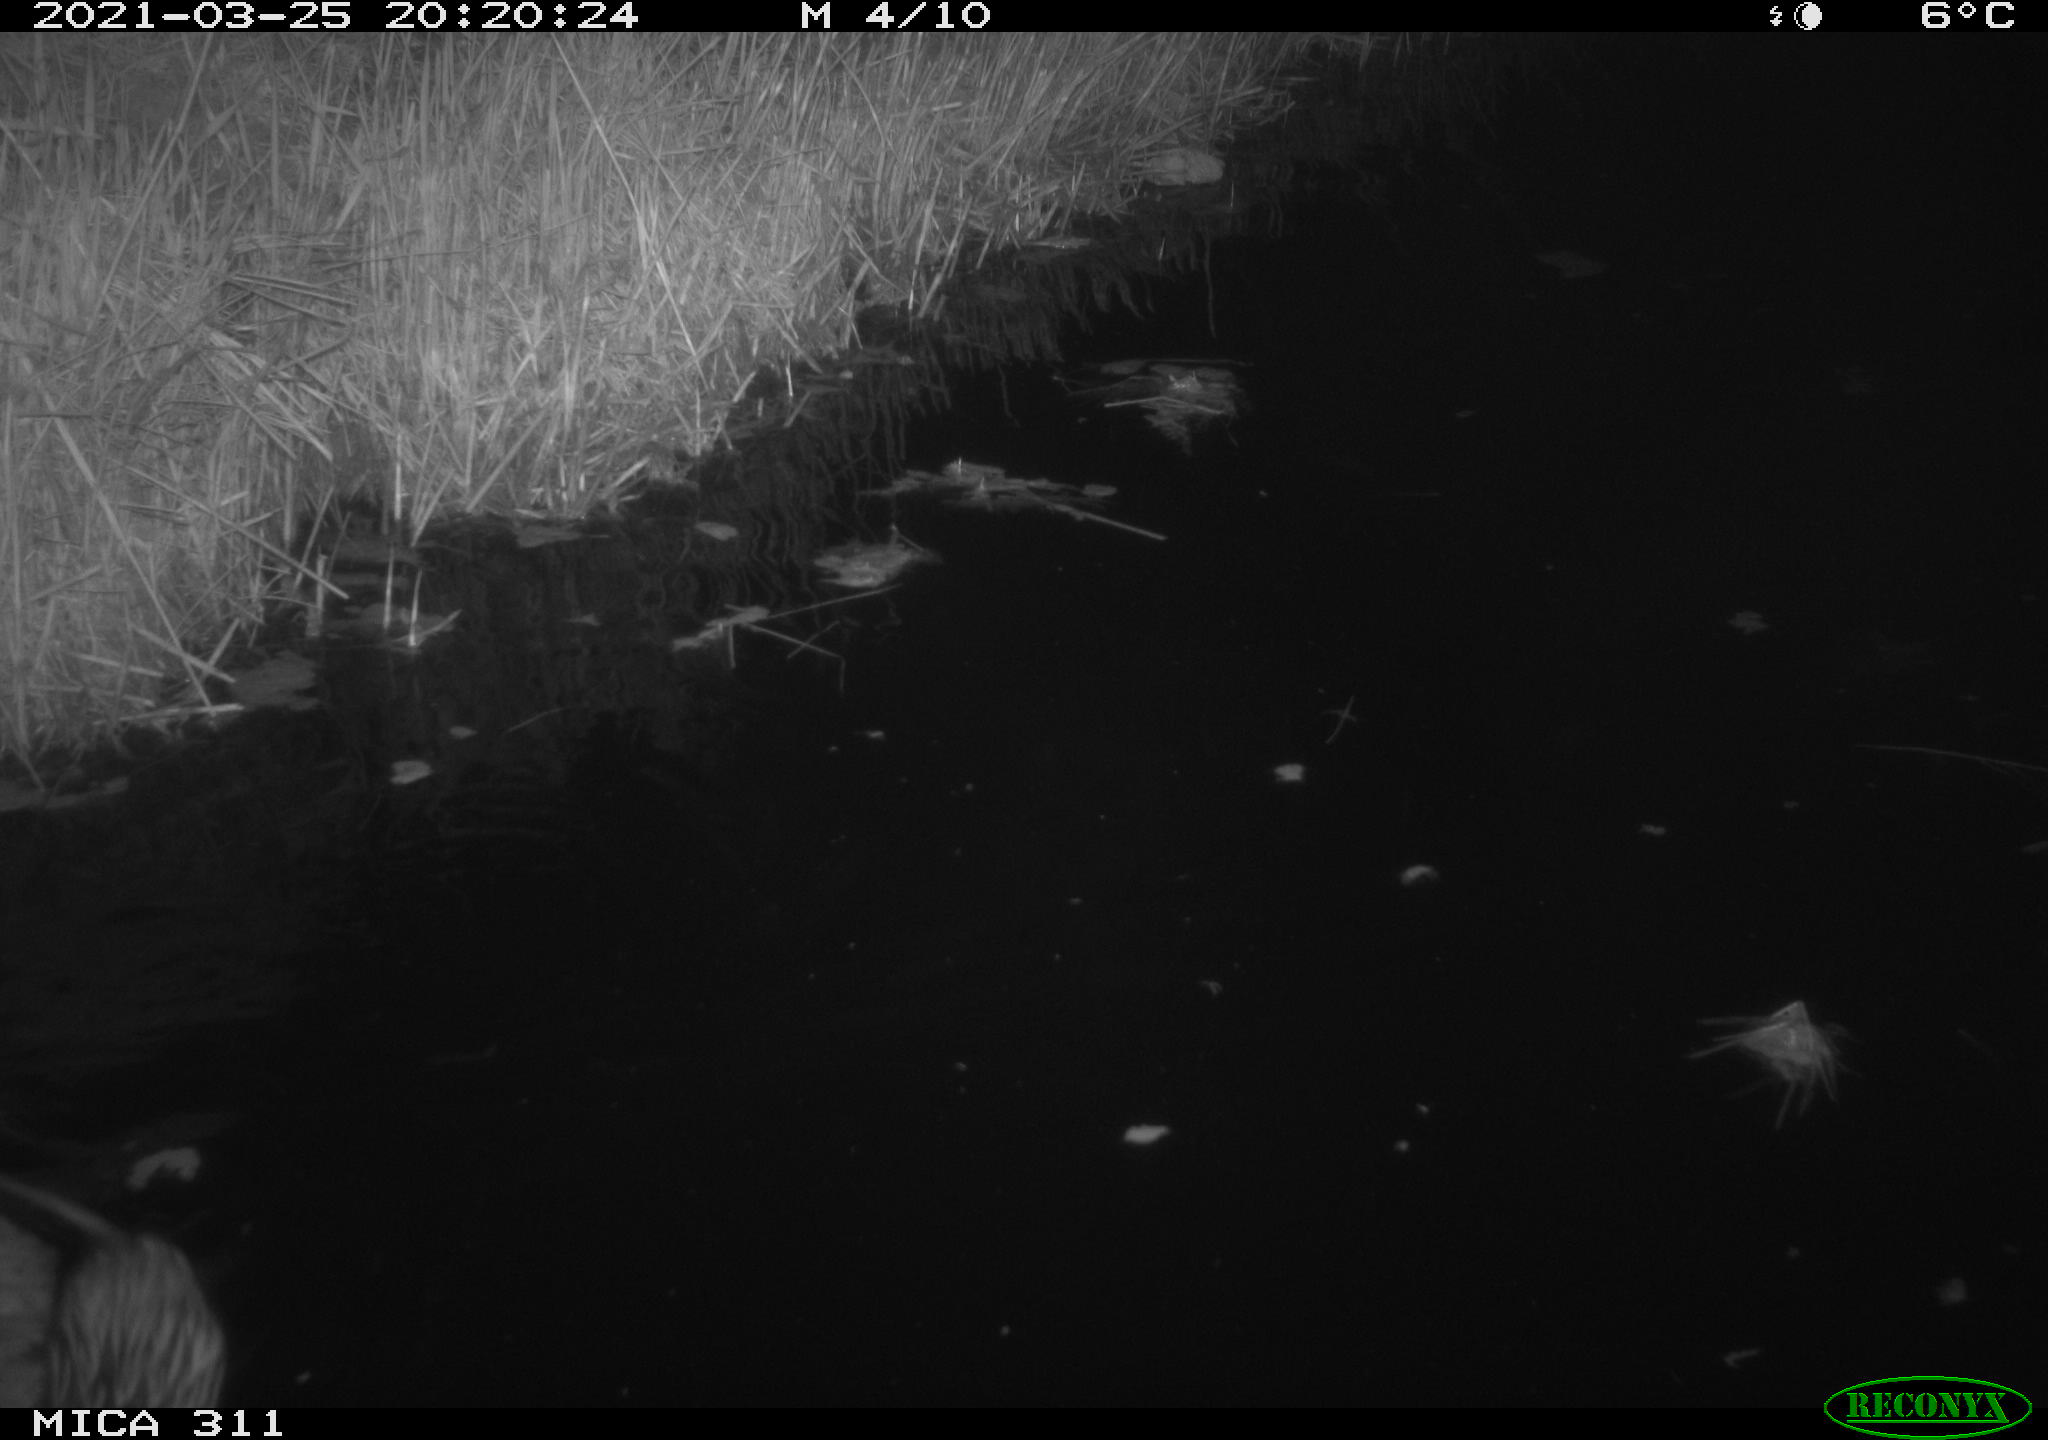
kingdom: Animalia
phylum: Chordata
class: Mammalia
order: Rodentia
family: Cricetidae
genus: Ondatra
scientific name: Ondatra zibethicus
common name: Muskrat
